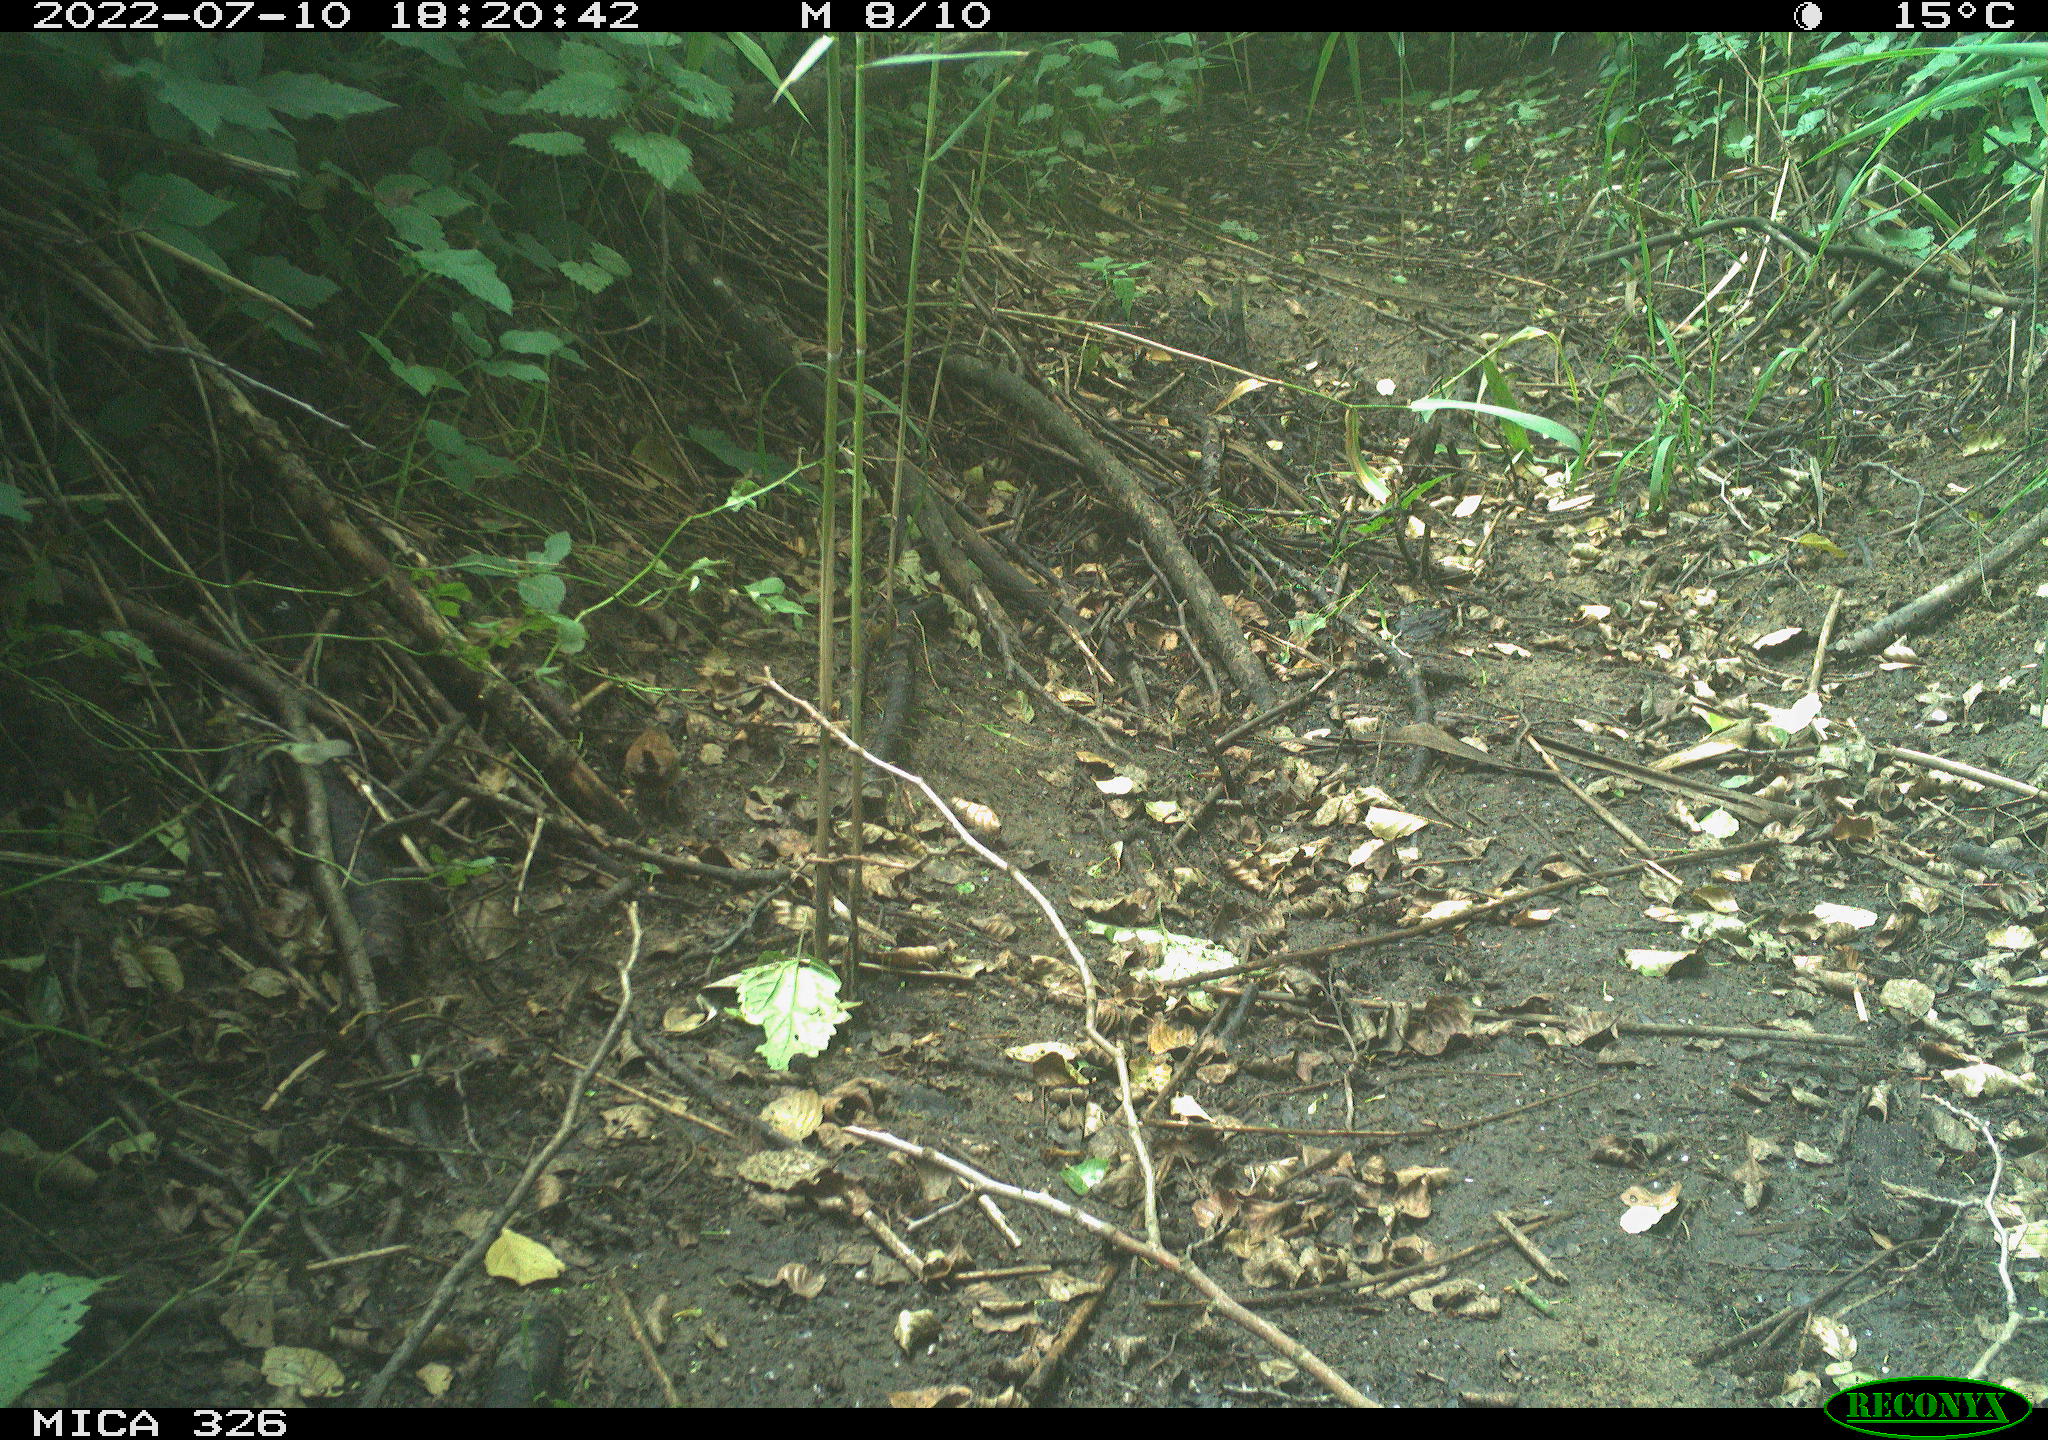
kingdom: Animalia
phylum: Chordata
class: Aves
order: Passeriformes
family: Troglodytidae
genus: Troglodytes
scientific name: Troglodytes troglodytes
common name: Eurasian wren
